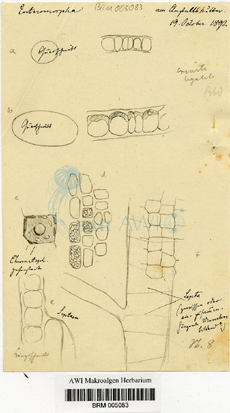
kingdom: Plantae
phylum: Chlorophyta
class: Ulvophyceae
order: Ulvales
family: Ulvaceae
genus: Ulva
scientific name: Ulva clathrata
